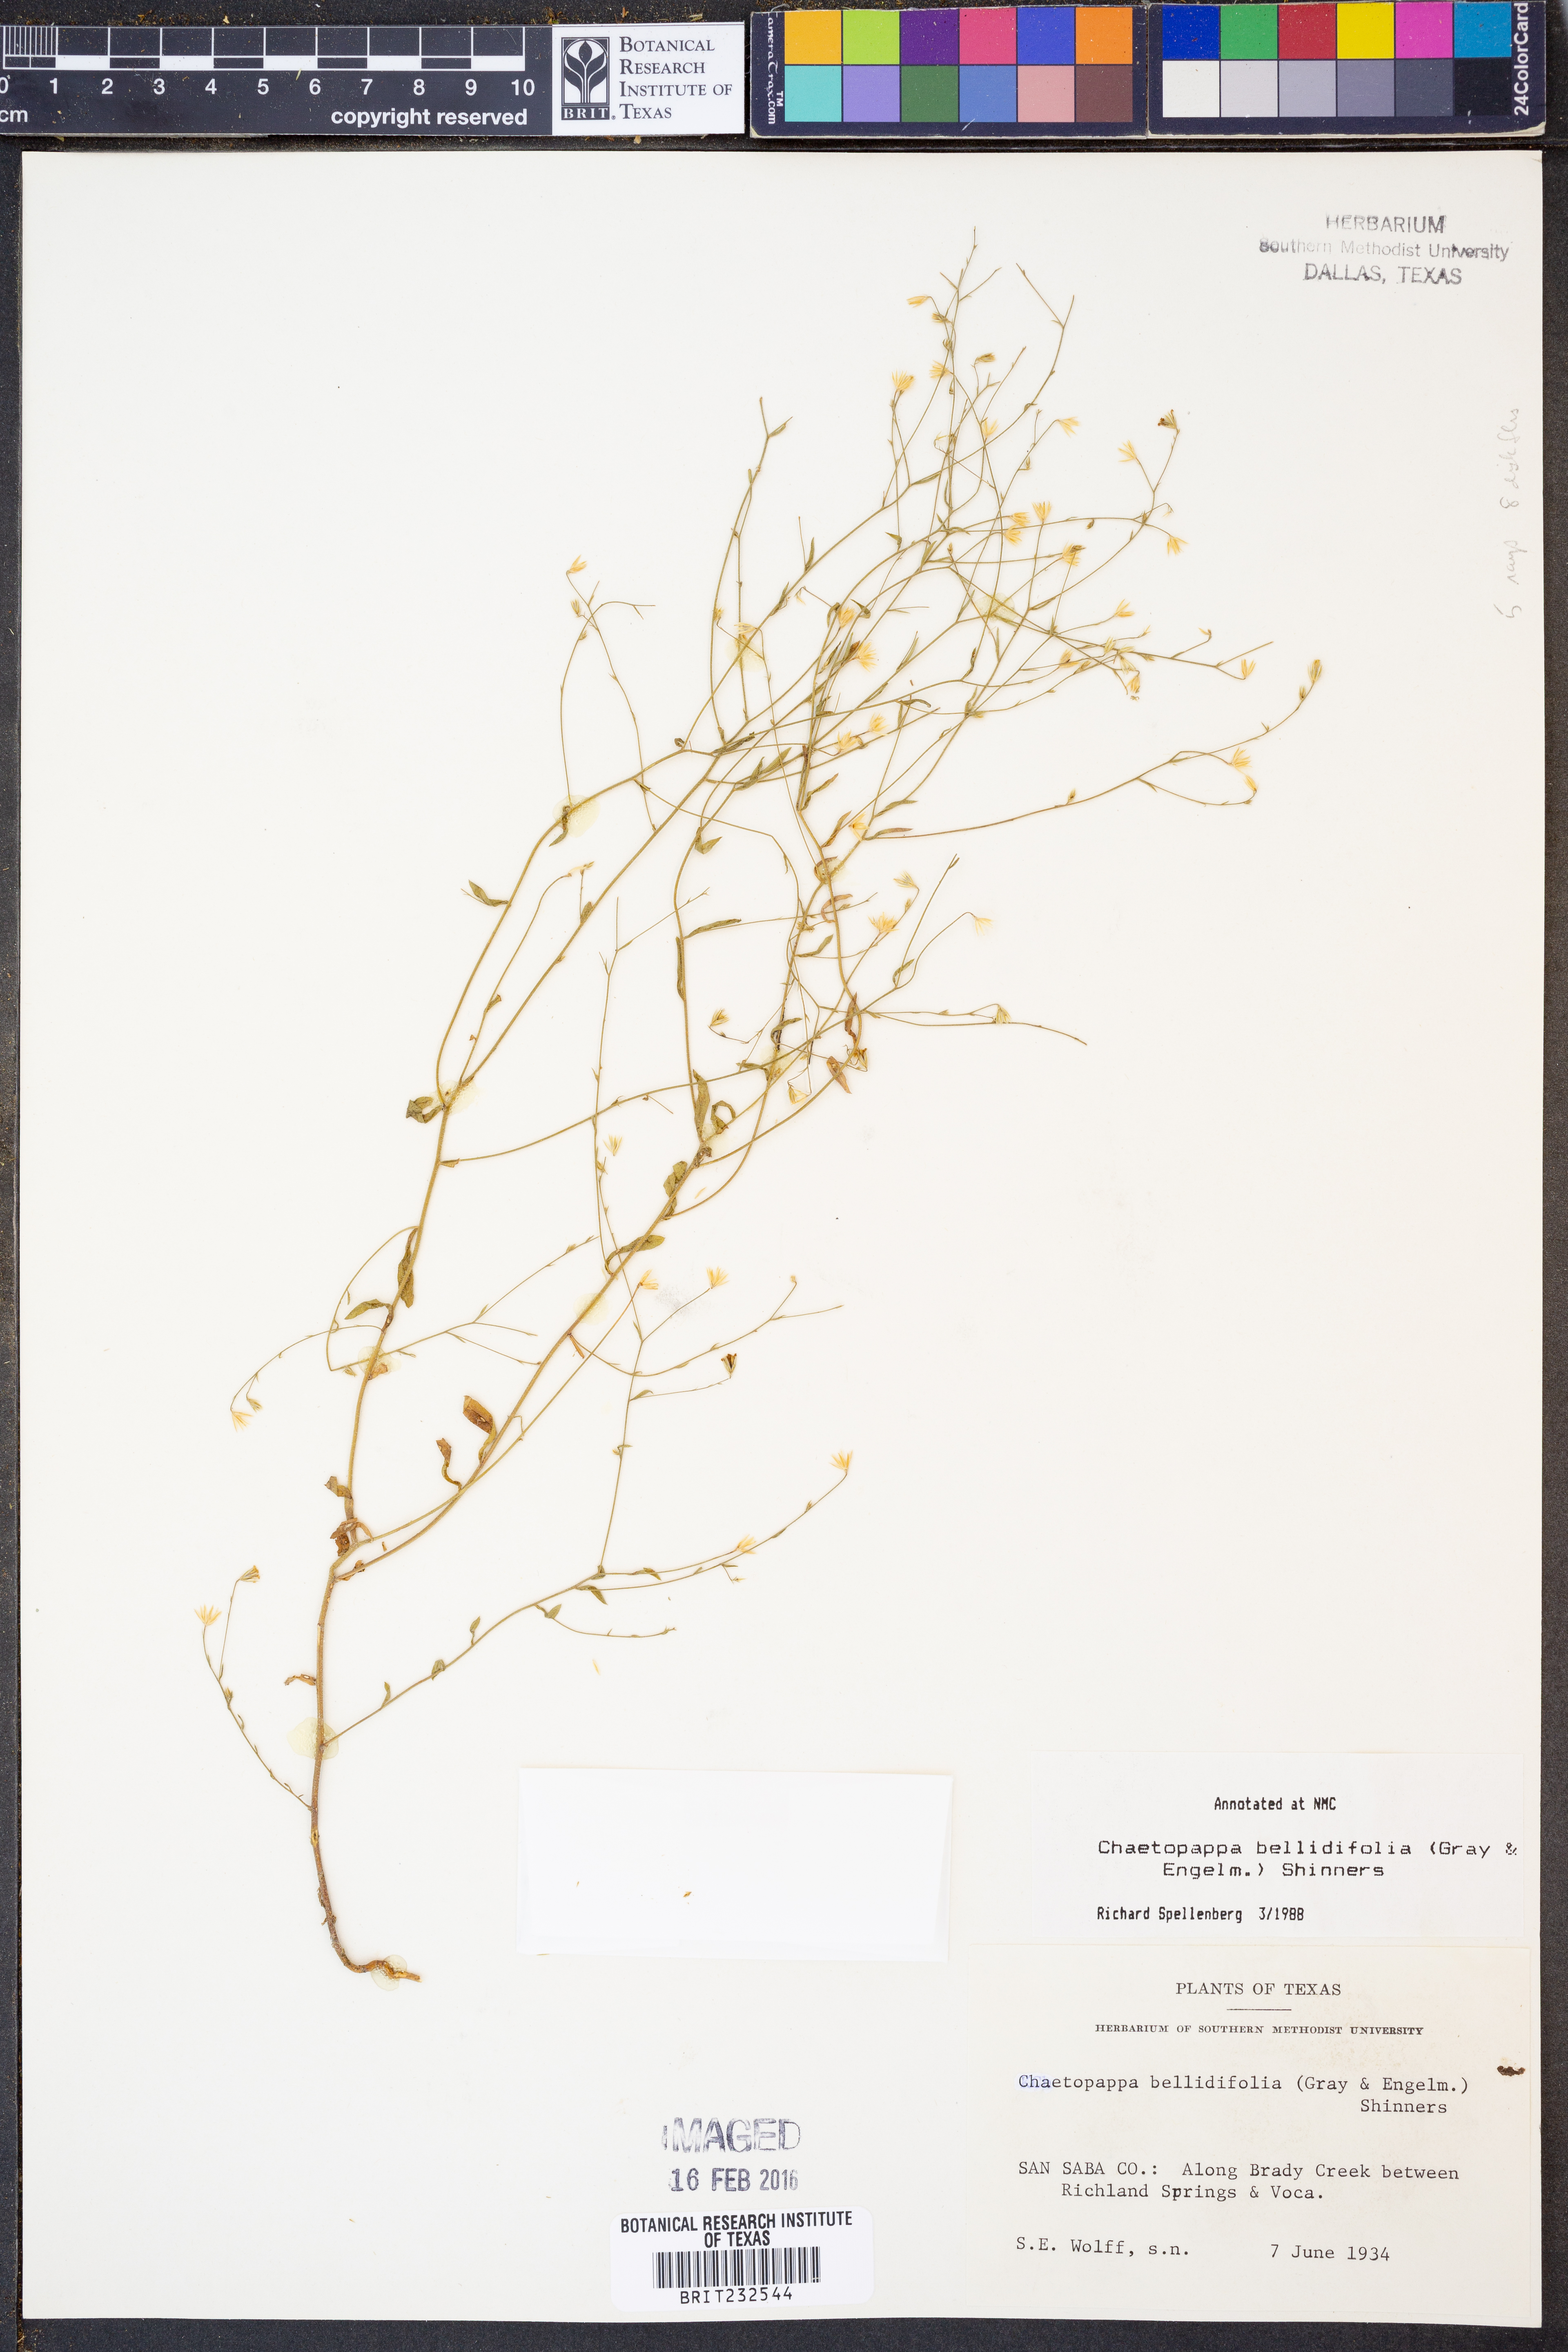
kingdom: Plantae
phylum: Tracheophyta
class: Magnoliopsida
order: Asterales
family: Asteraceae
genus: Chaetopappa
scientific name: Chaetopappa bellidifolia
